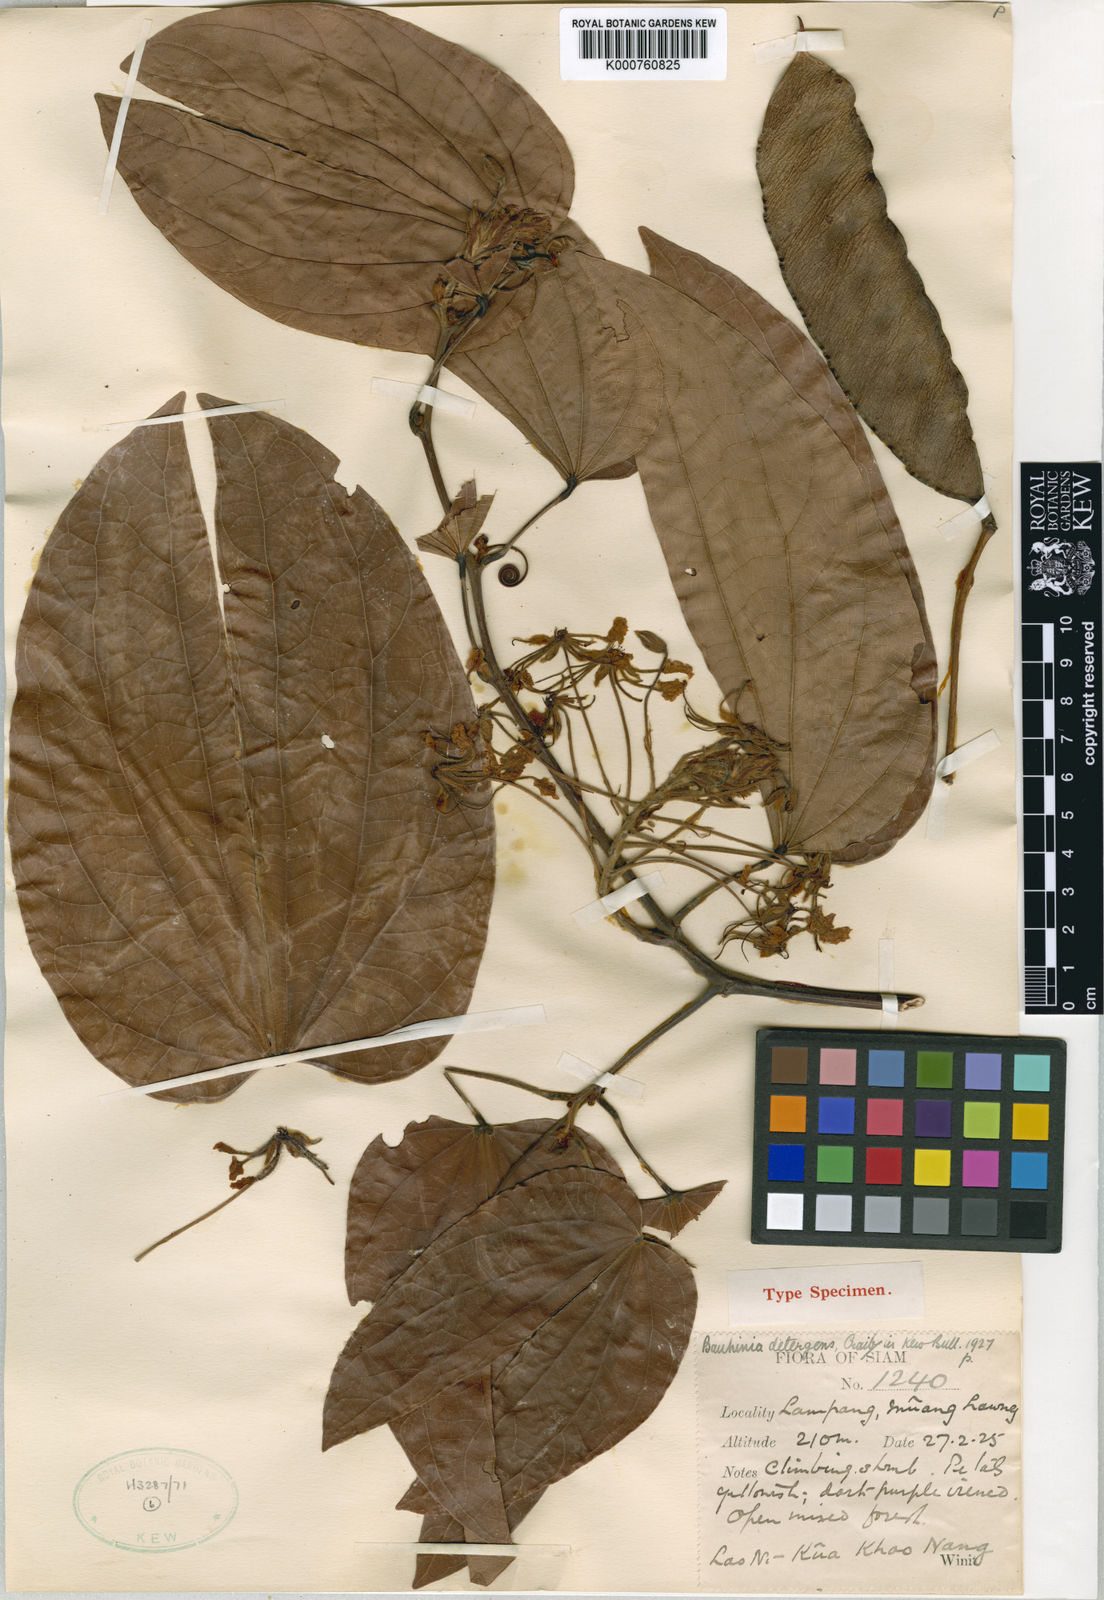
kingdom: Plantae
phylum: Tracheophyta
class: Magnoliopsida
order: Fabales
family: Fabaceae
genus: Phanera
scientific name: Phanera bassacensis
